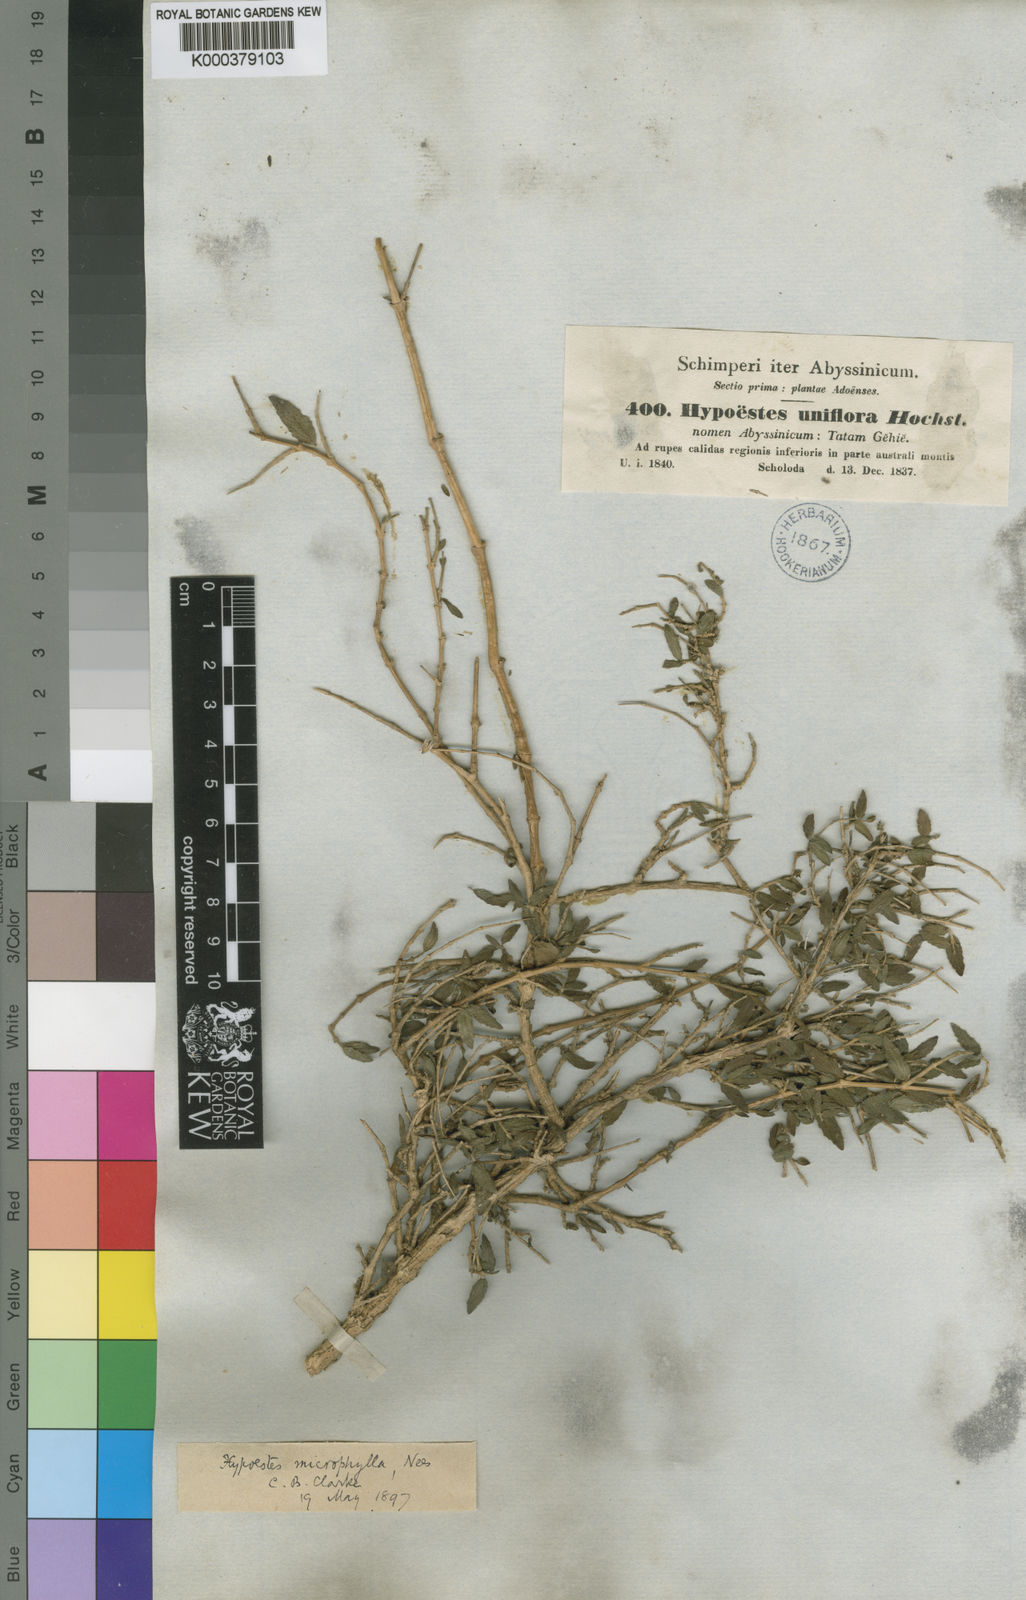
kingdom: Plantae
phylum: Tracheophyta
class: Magnoliopsida
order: Lamiales
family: Acanthaceae
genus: Hypoestes
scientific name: Hypoestes triflora
